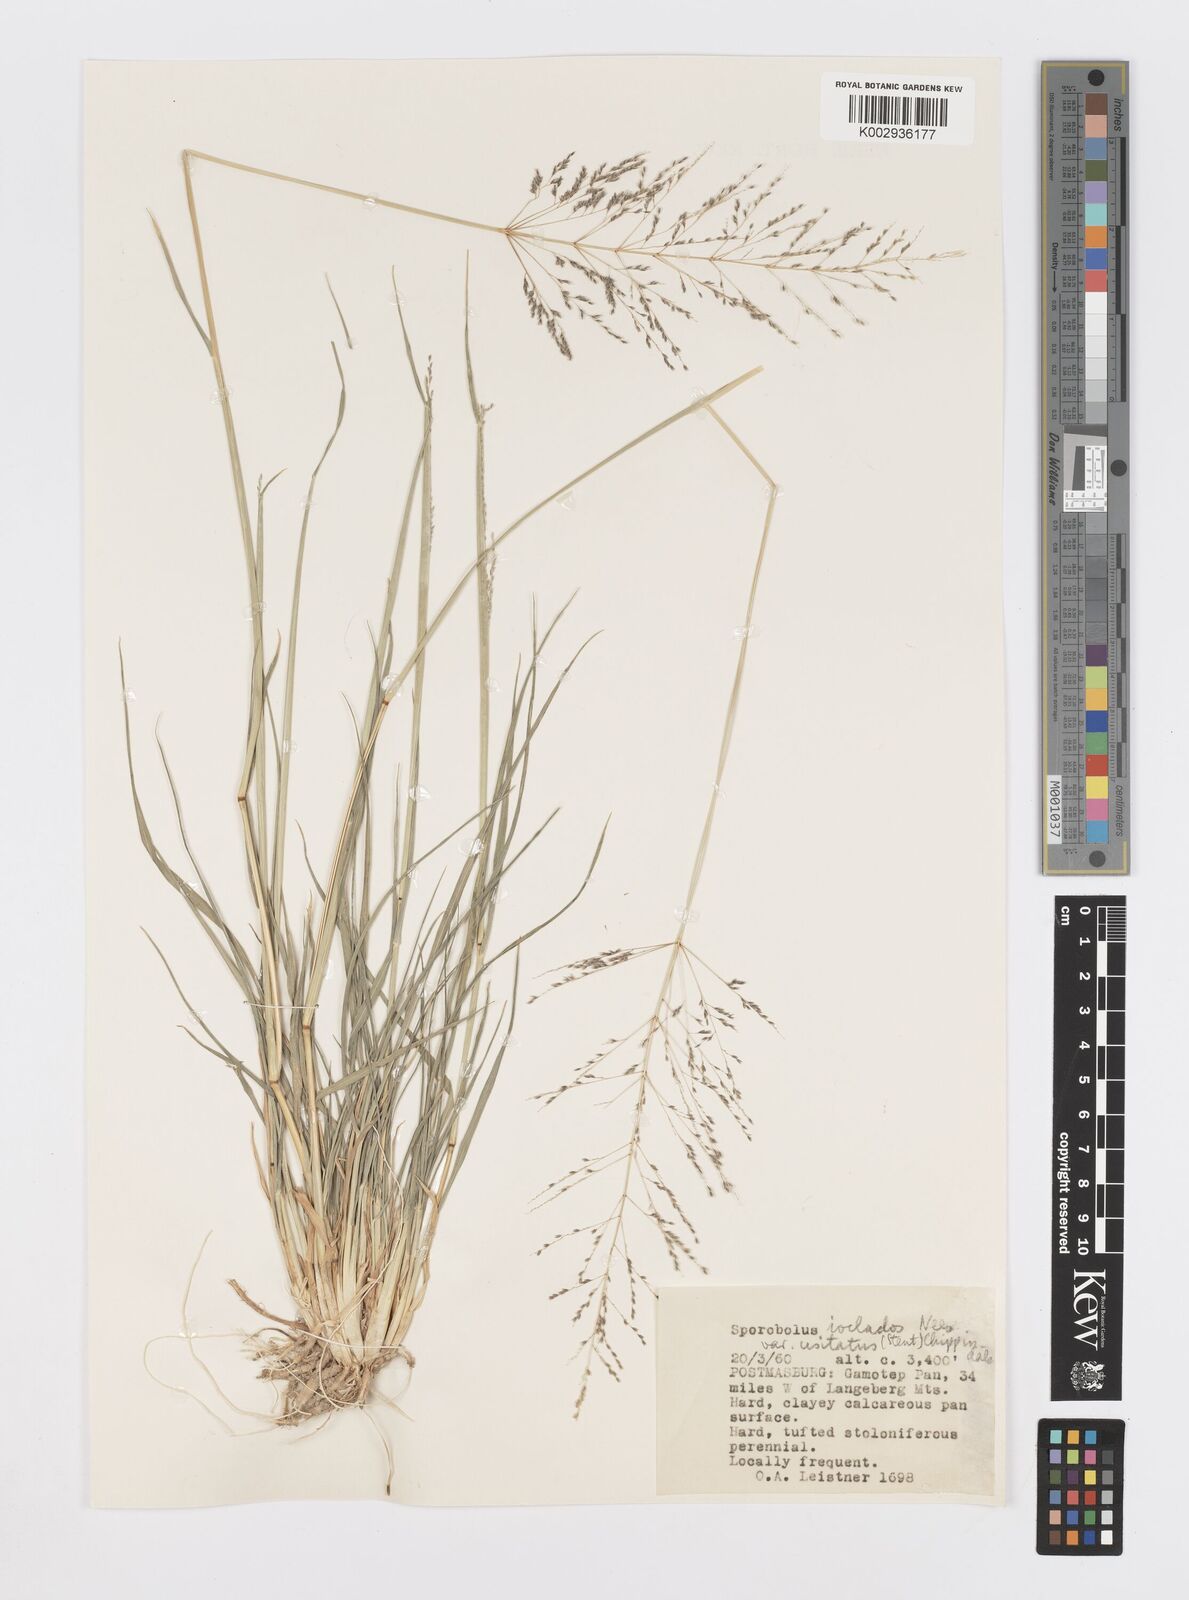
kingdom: Plantae
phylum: Tracheophyta
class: Liliopsida
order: Poales
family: Poaceae
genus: Sporobolus
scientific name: Sporobolus ioclados
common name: Pan dropseed
